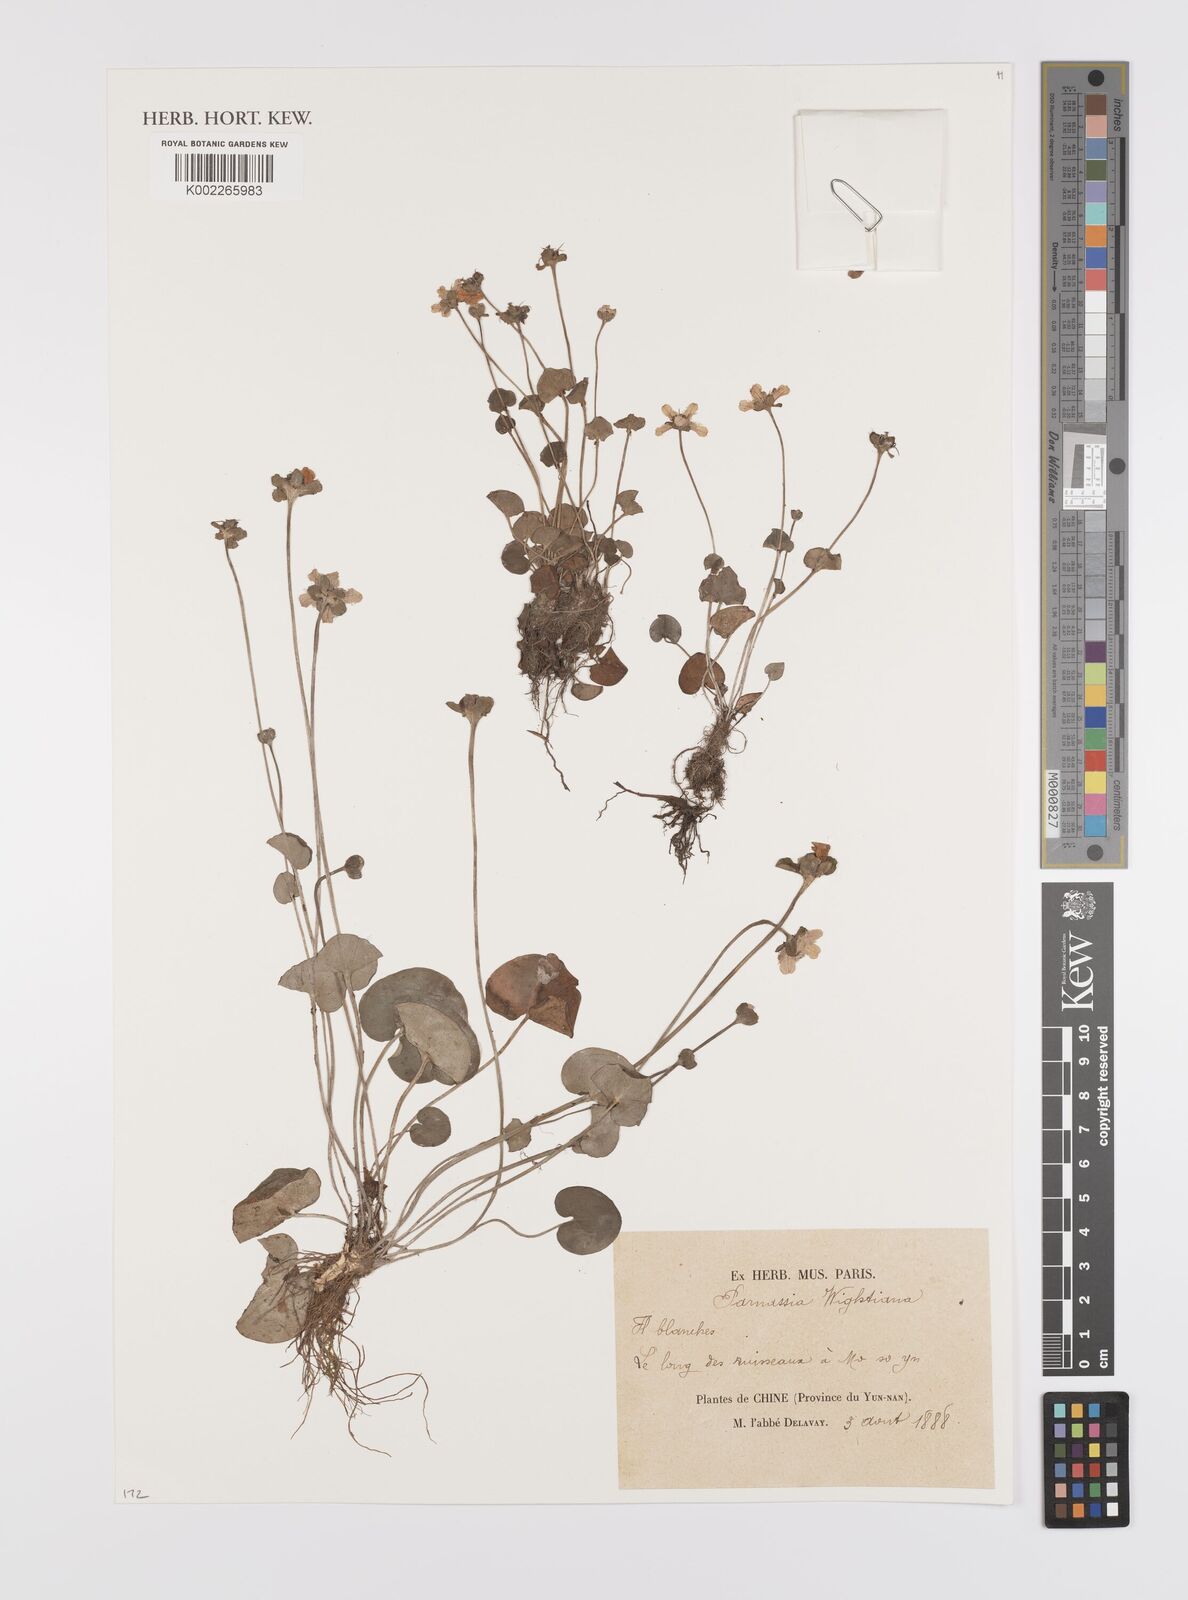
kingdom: Plantae
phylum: Tracheophyta
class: Magnoliopsida
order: Celastrales
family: Parnassiaceae
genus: Parnassia
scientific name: Parnassia wightiana
